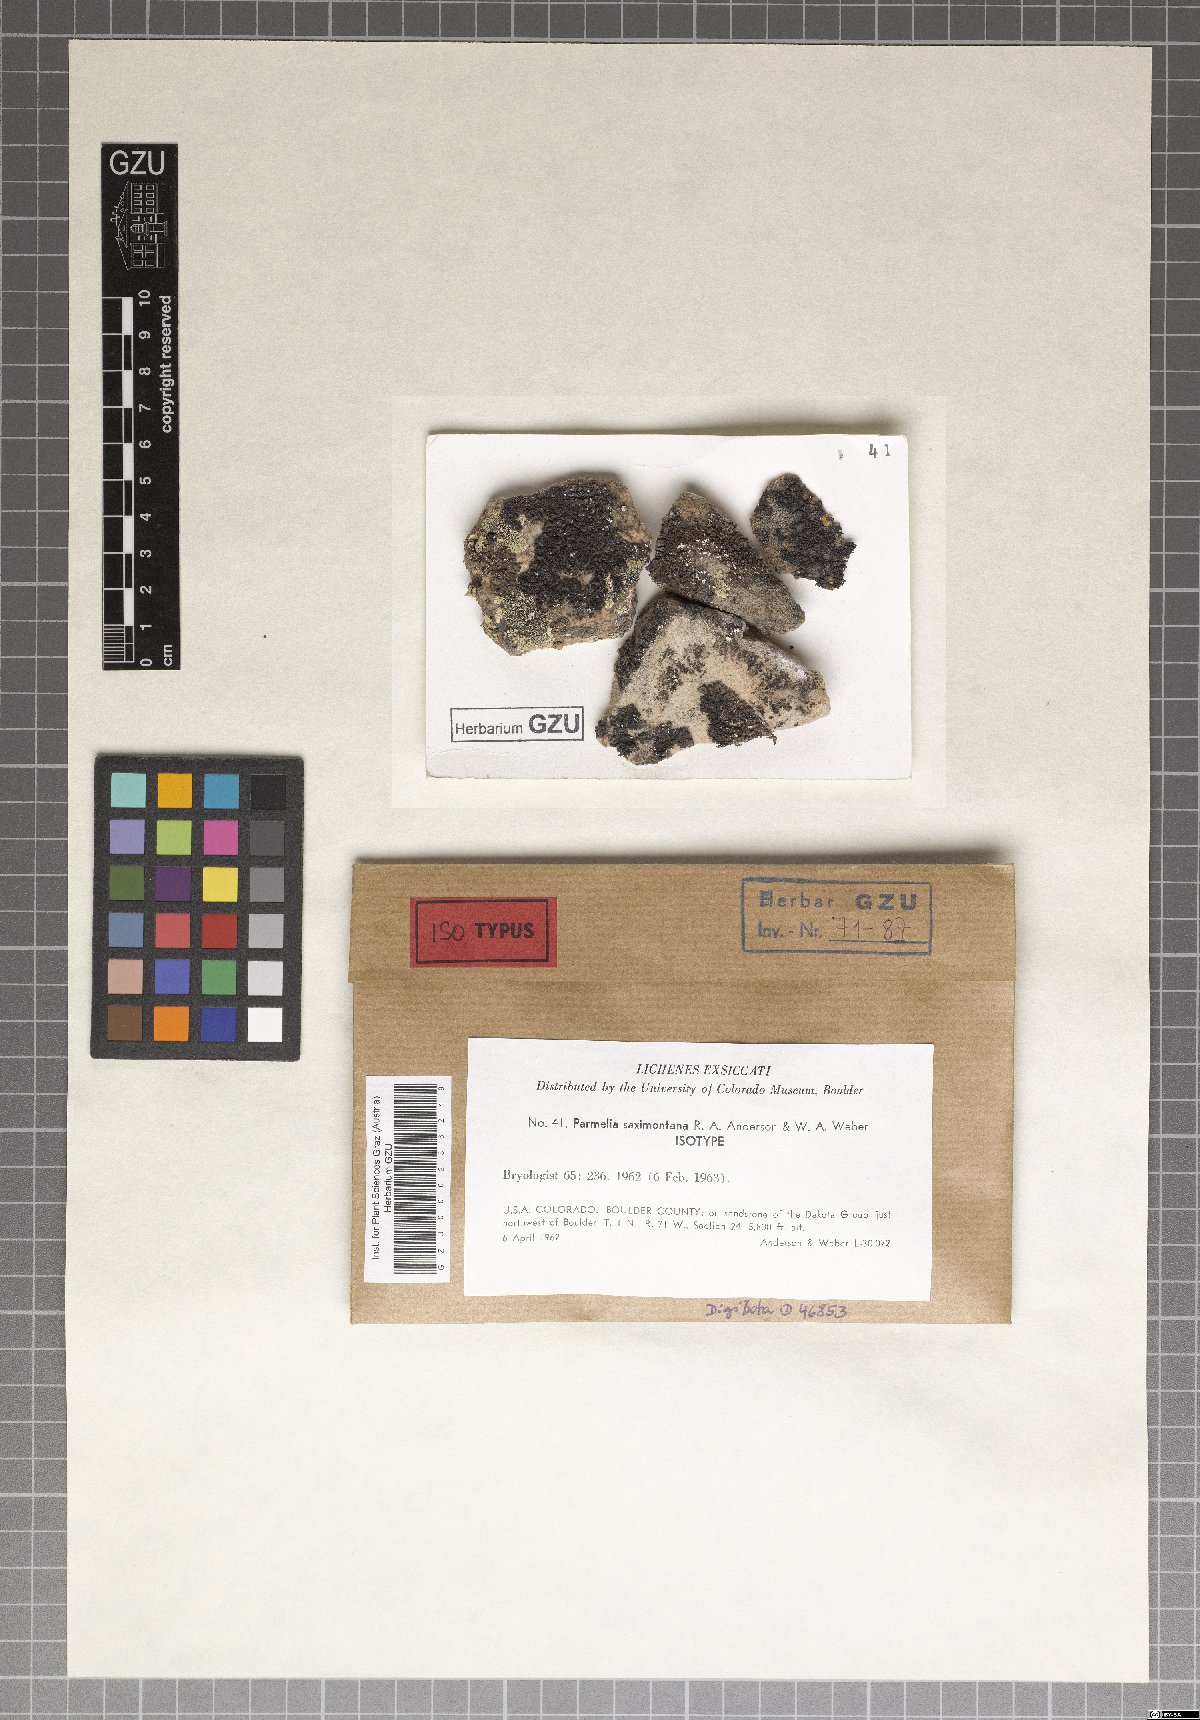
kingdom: Fungi
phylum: Ascomycota
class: Lecanoromycetes
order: Lecanorales
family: Parmeliaceae
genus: Parmelinella
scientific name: Parmelinella
